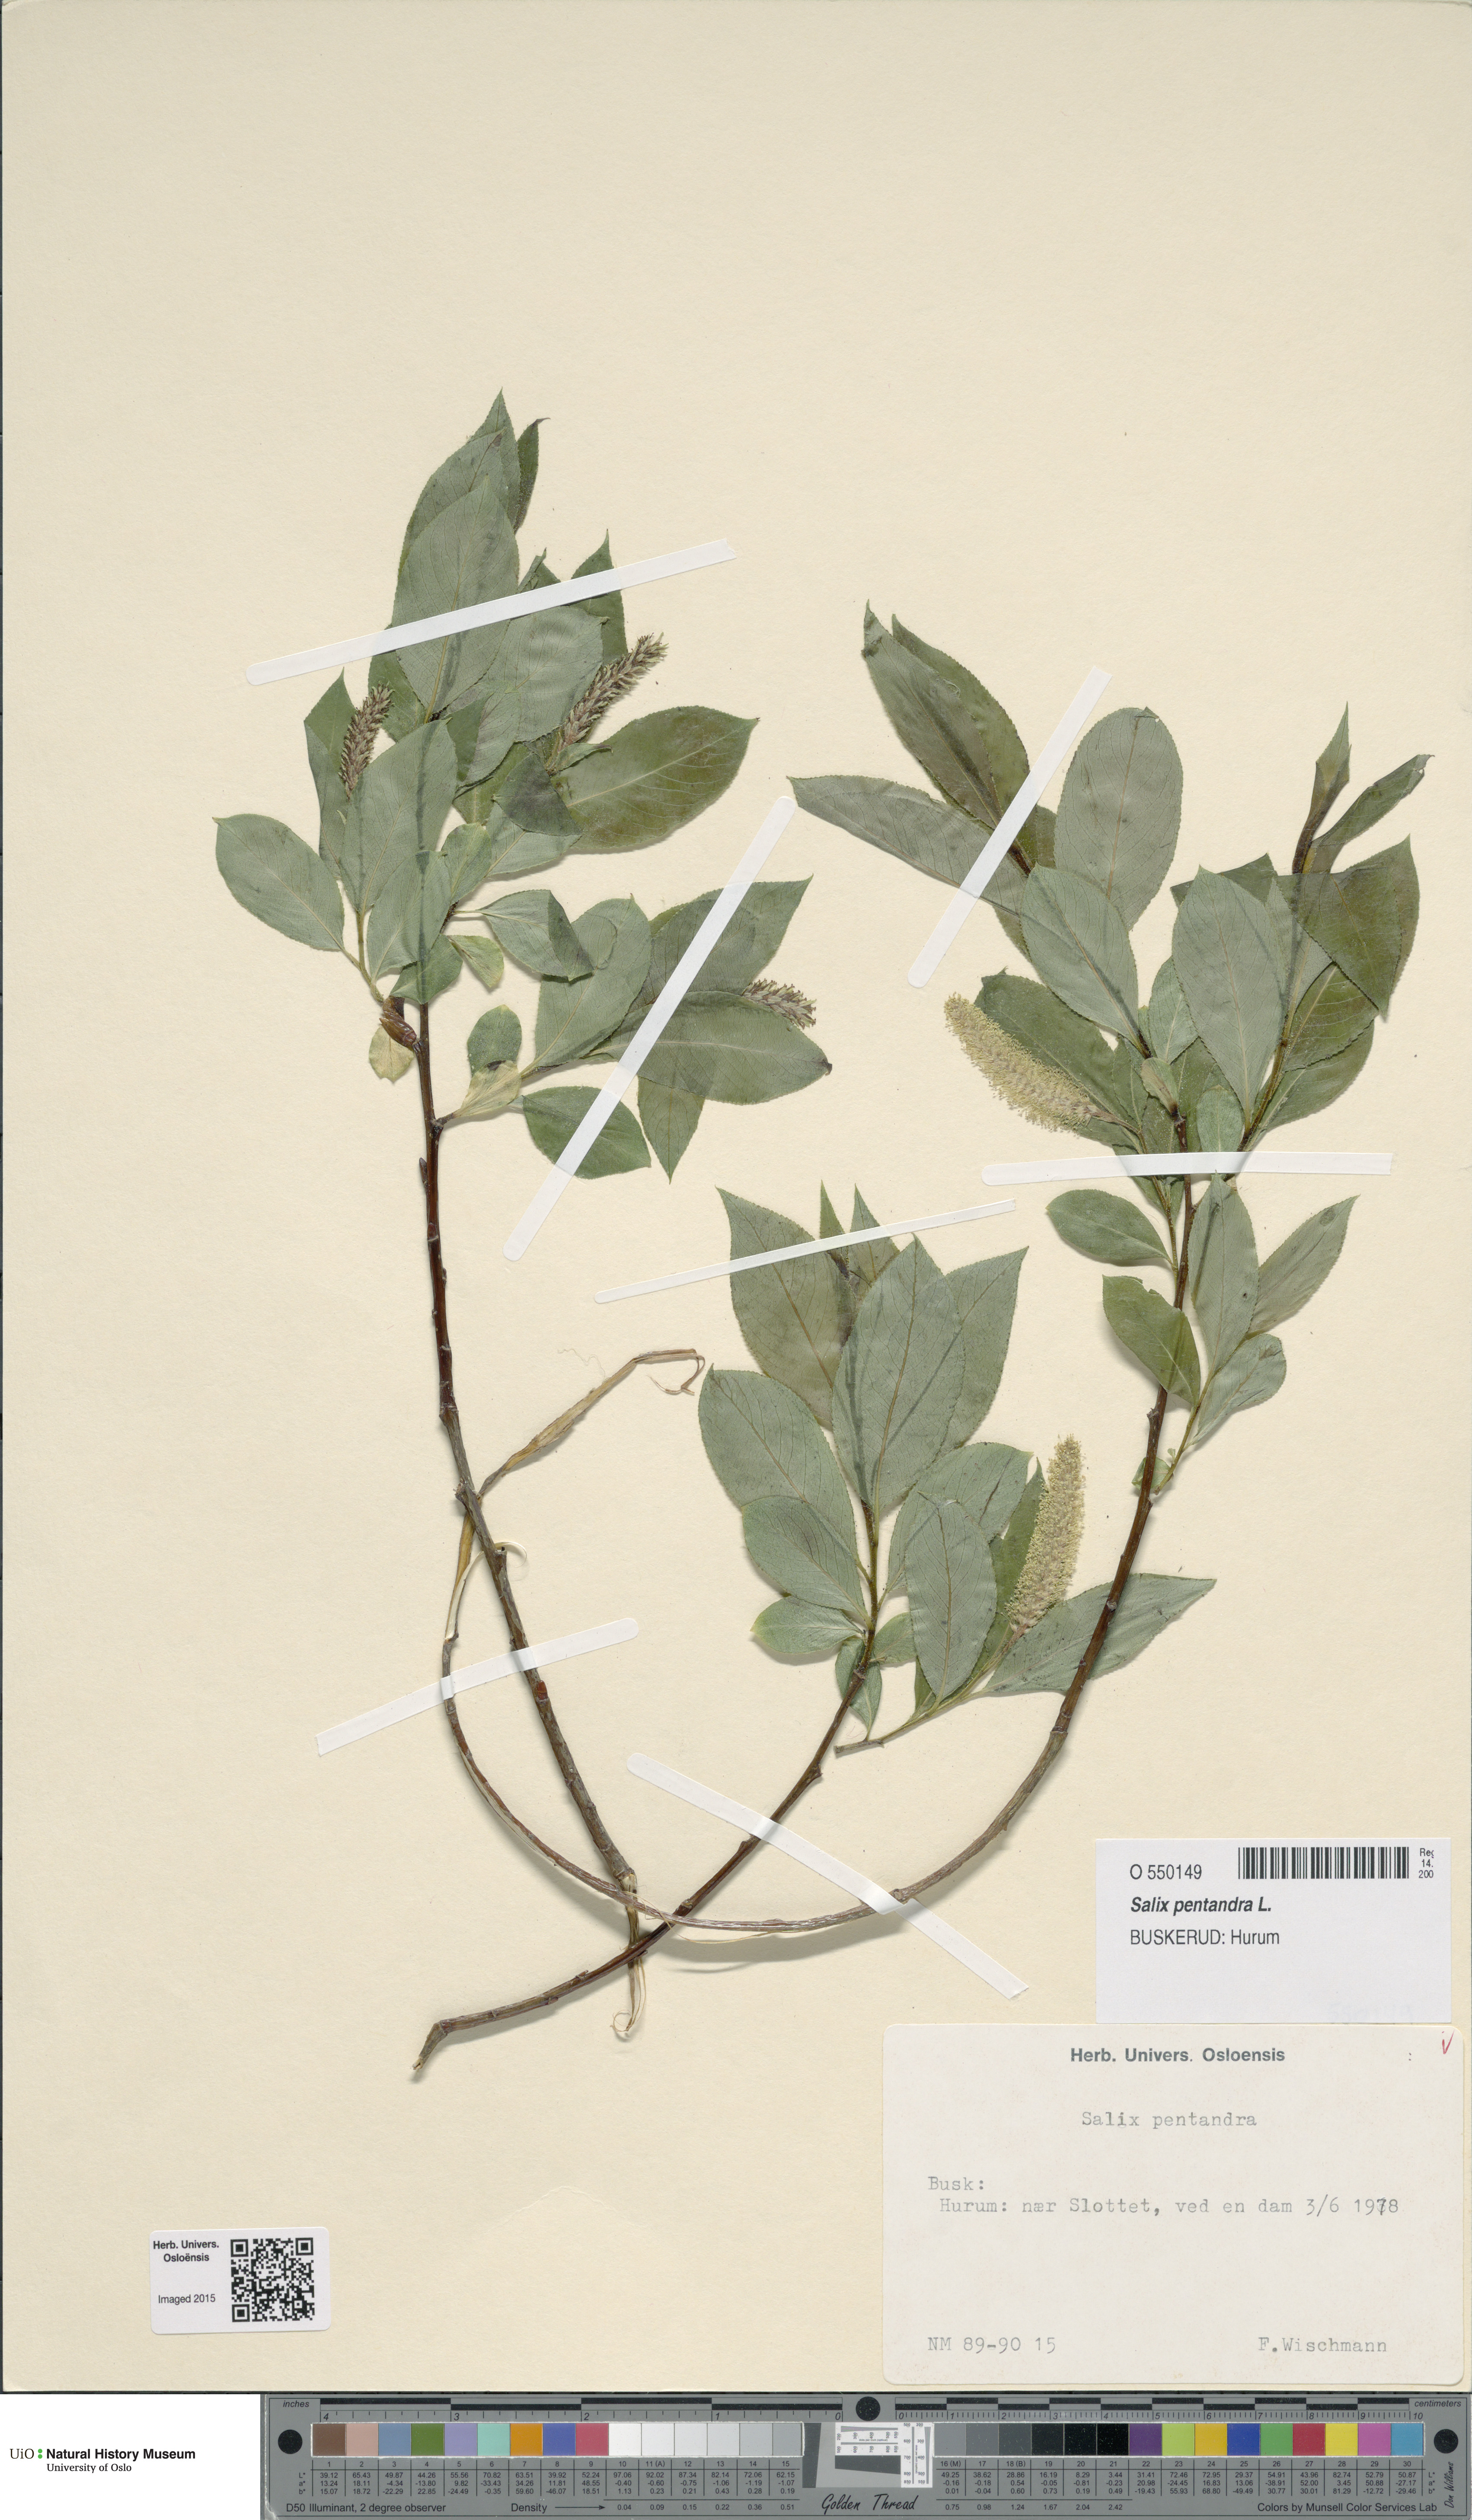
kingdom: Plantae
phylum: Tracheophyta
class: Magnoliopsida
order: Malpighiales
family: Salicaceae
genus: Salix
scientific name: Salix pentandra
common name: Bay willow
